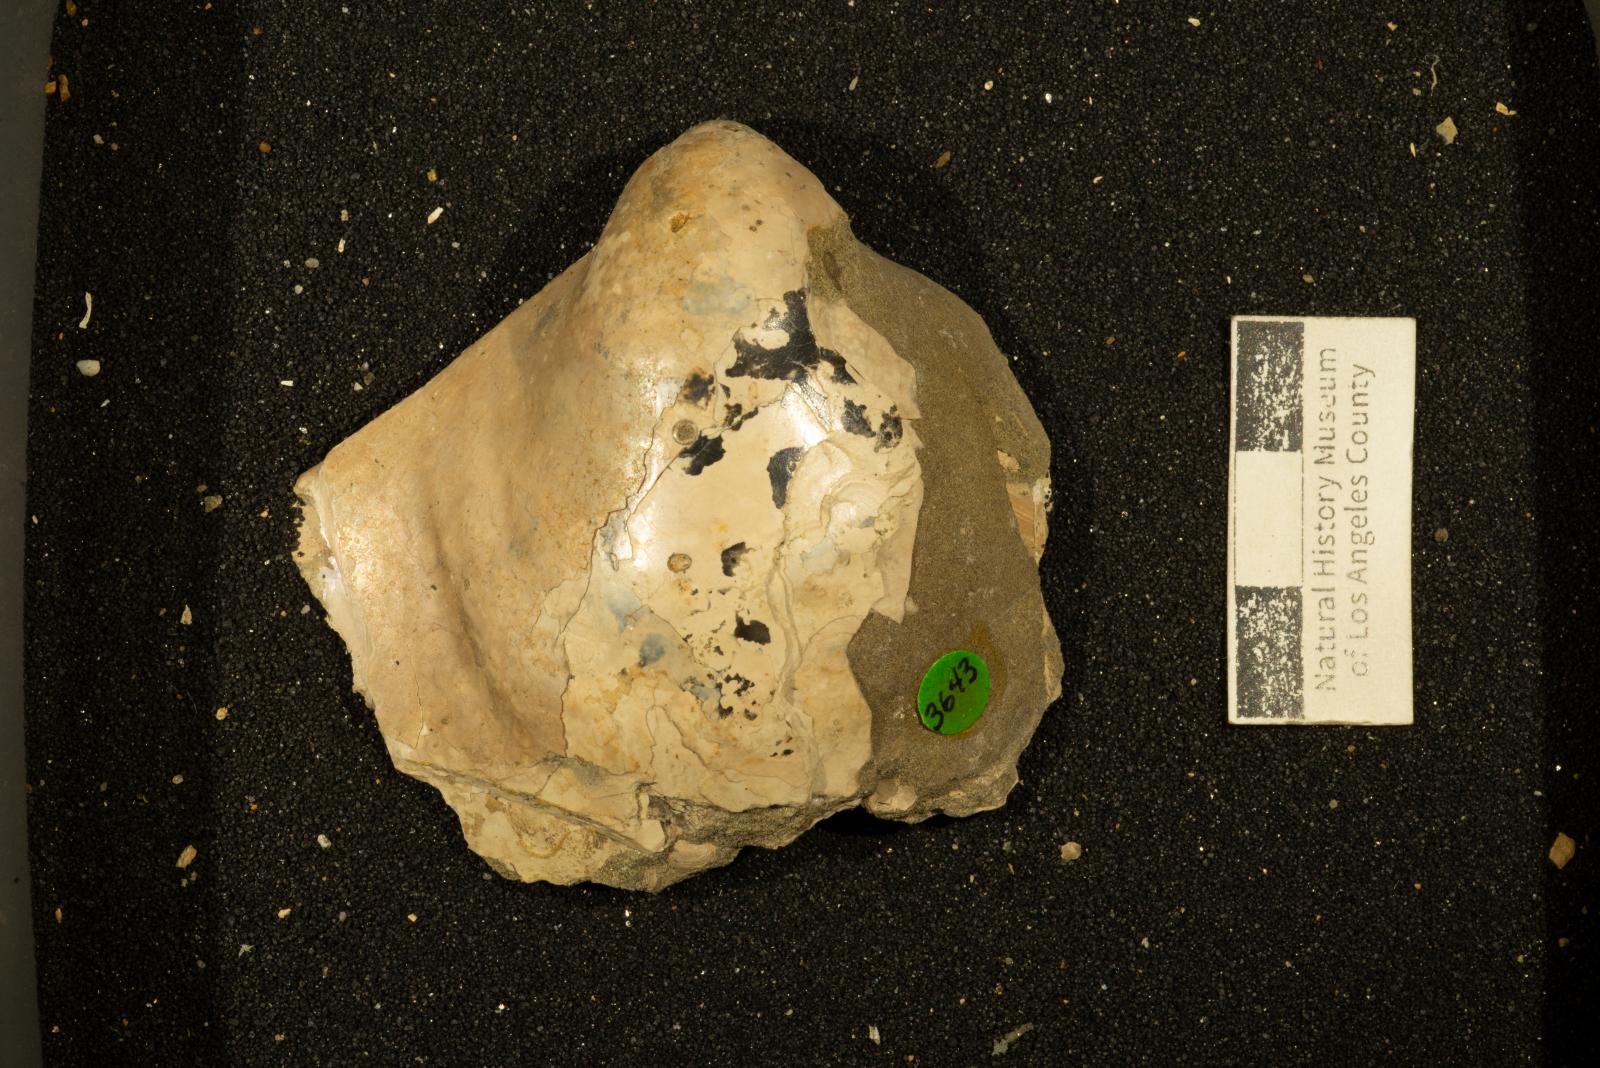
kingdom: Animalia
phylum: Mollusca
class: Bivalvia
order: Myalinida
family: Inoceramidae
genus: Cataceramus
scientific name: Cataceramus
